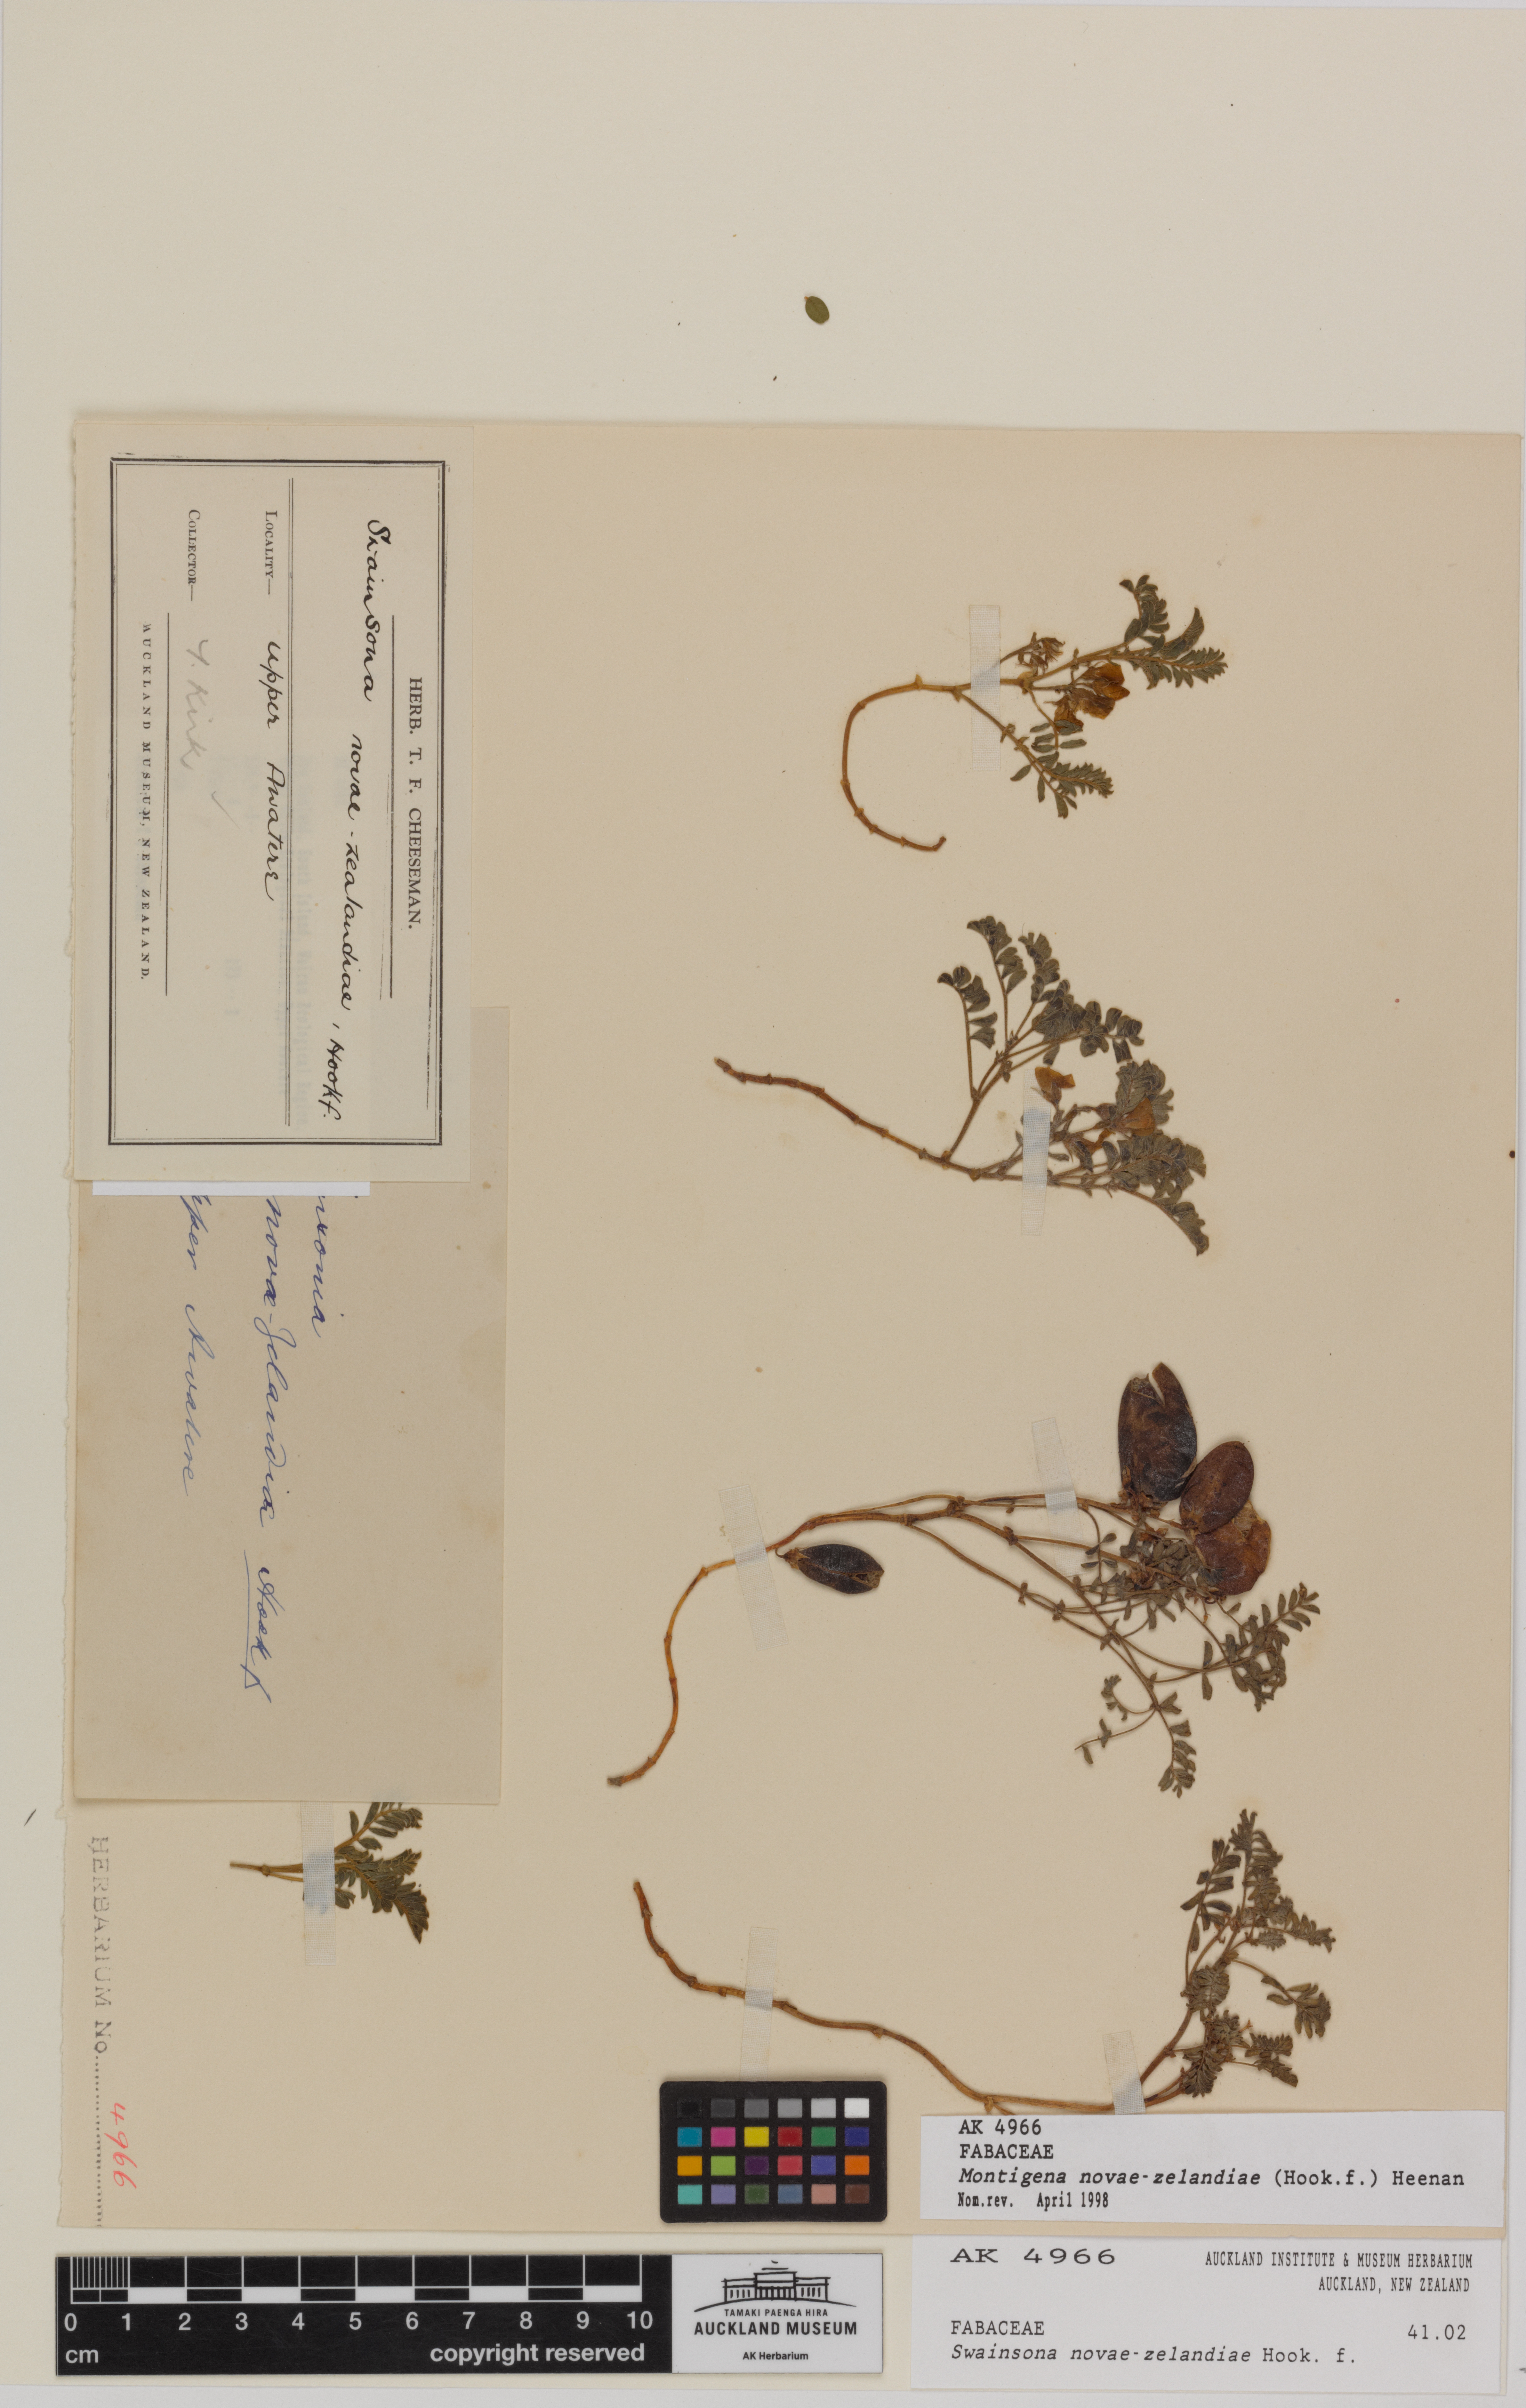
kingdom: Plantae
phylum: Tracheophyta
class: Magnoliopsida
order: Fabales
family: Fabaceae
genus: Montigena
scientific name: Montigena novae-zelandiae
